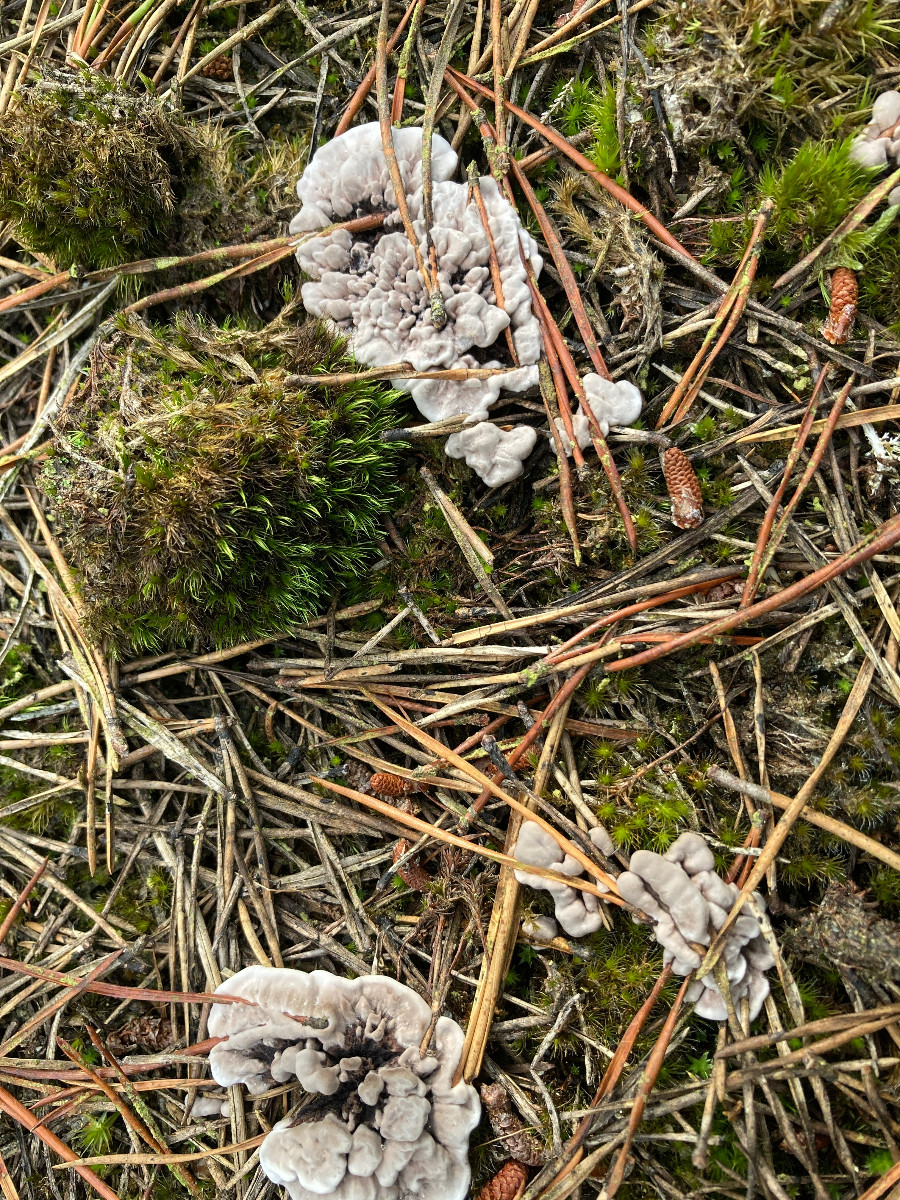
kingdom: Fungi
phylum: Basidiomycota
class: Agaricomycetes
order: Thelephorales
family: Thelephoraceae
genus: Phellodon
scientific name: Phellodon
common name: mørk duftpigsvamp
